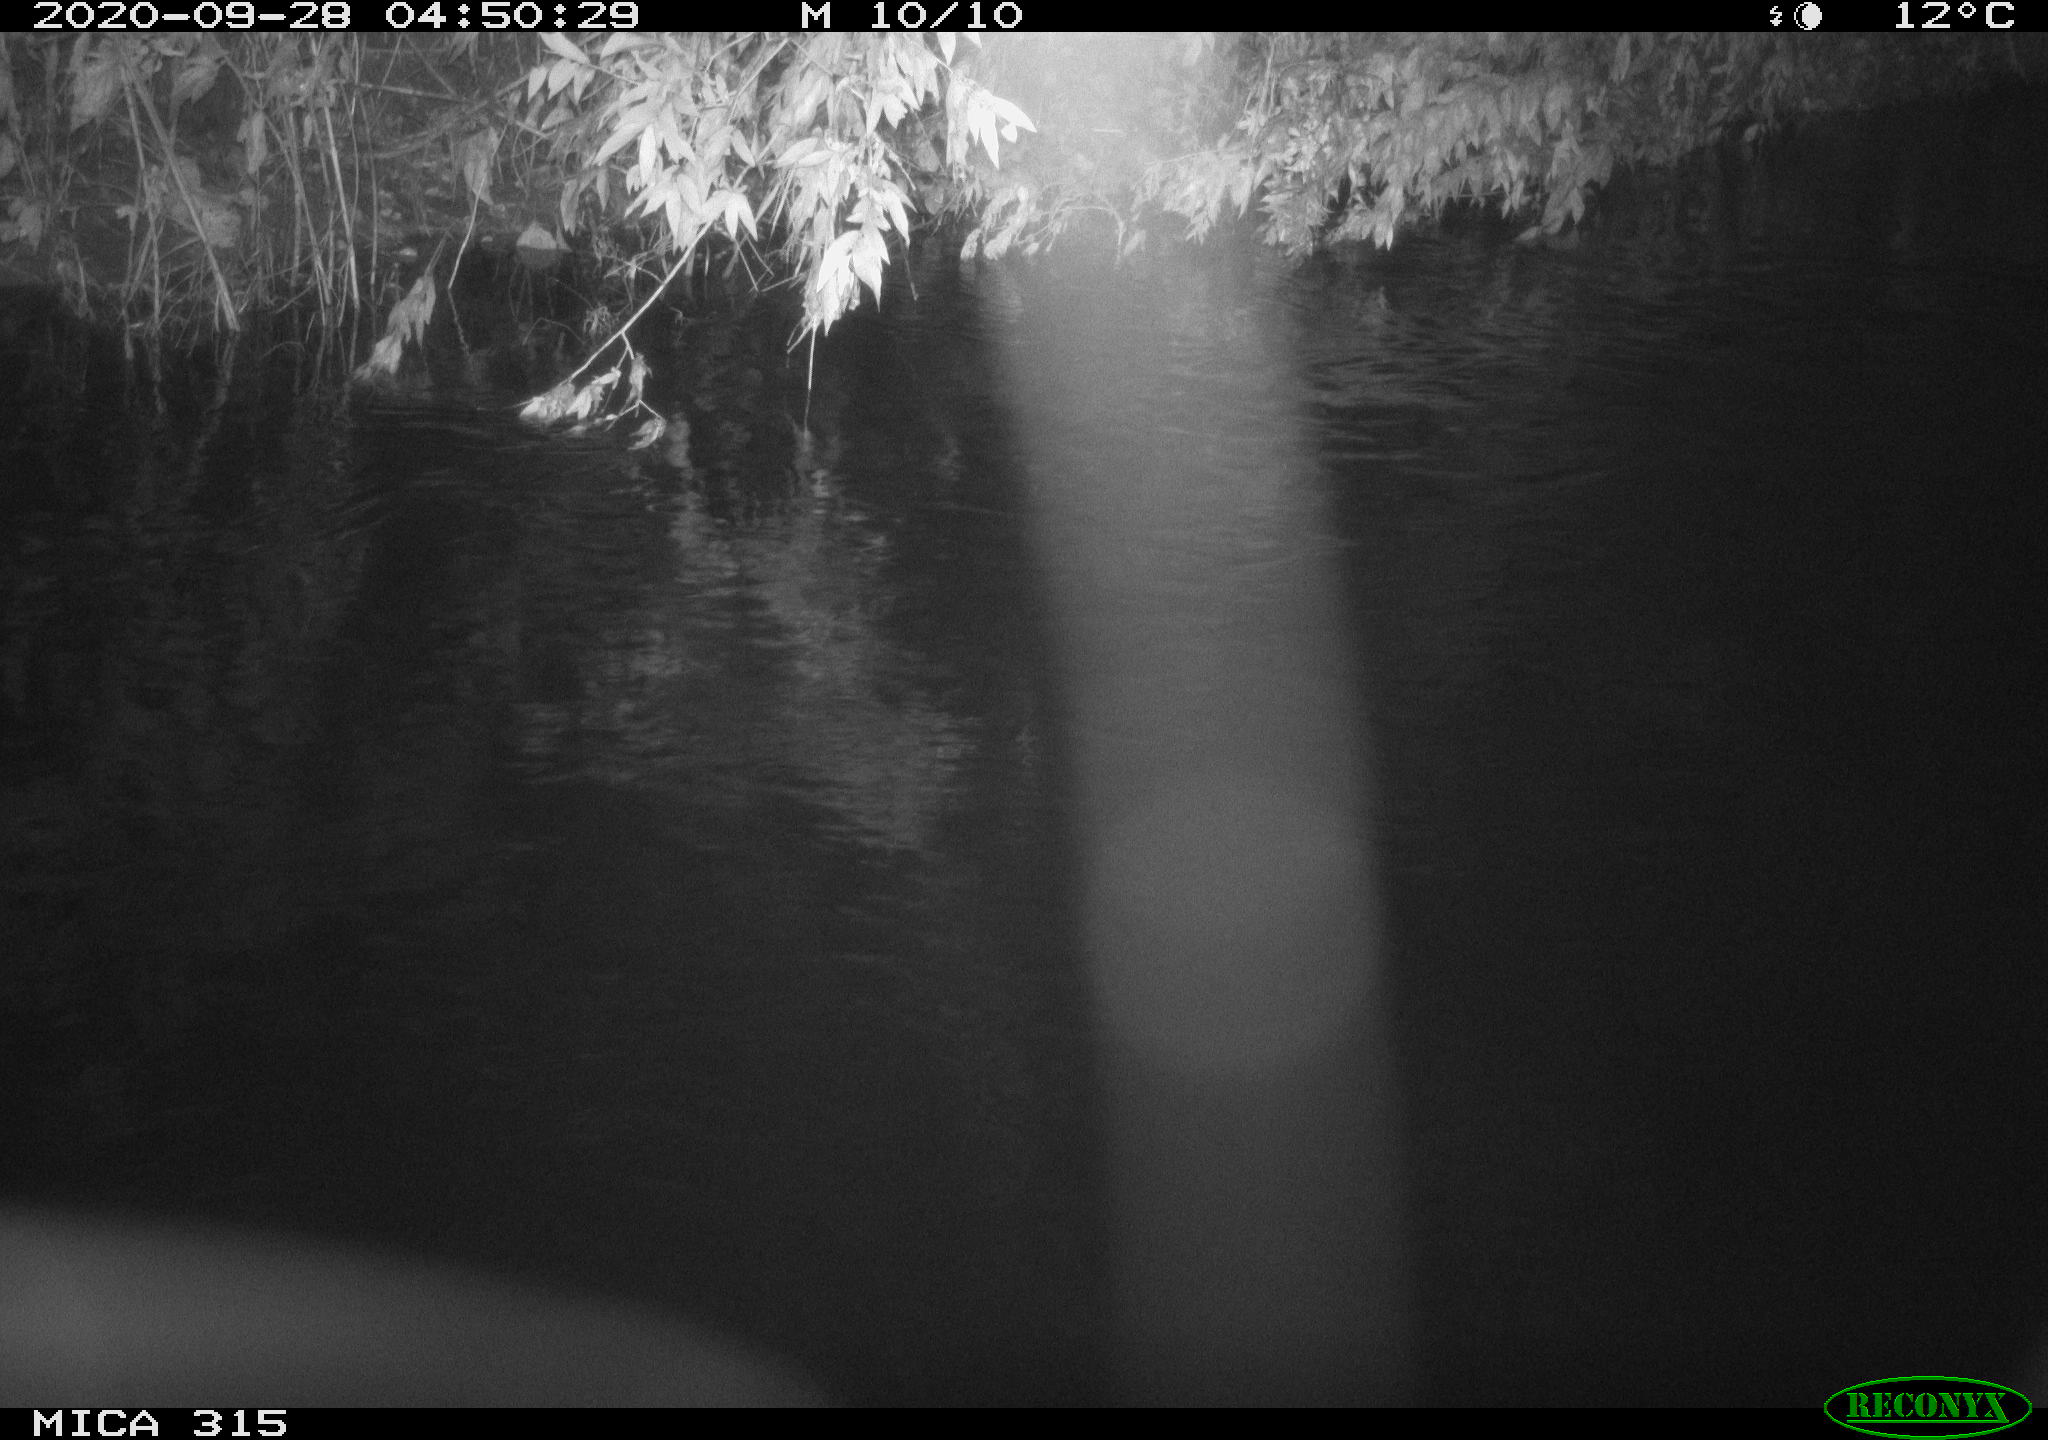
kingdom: Animalia
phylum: Chordata
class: Aves
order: Anseriformes
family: Anatidae
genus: Anas
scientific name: Anas platyrhynchos
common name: Mallard
